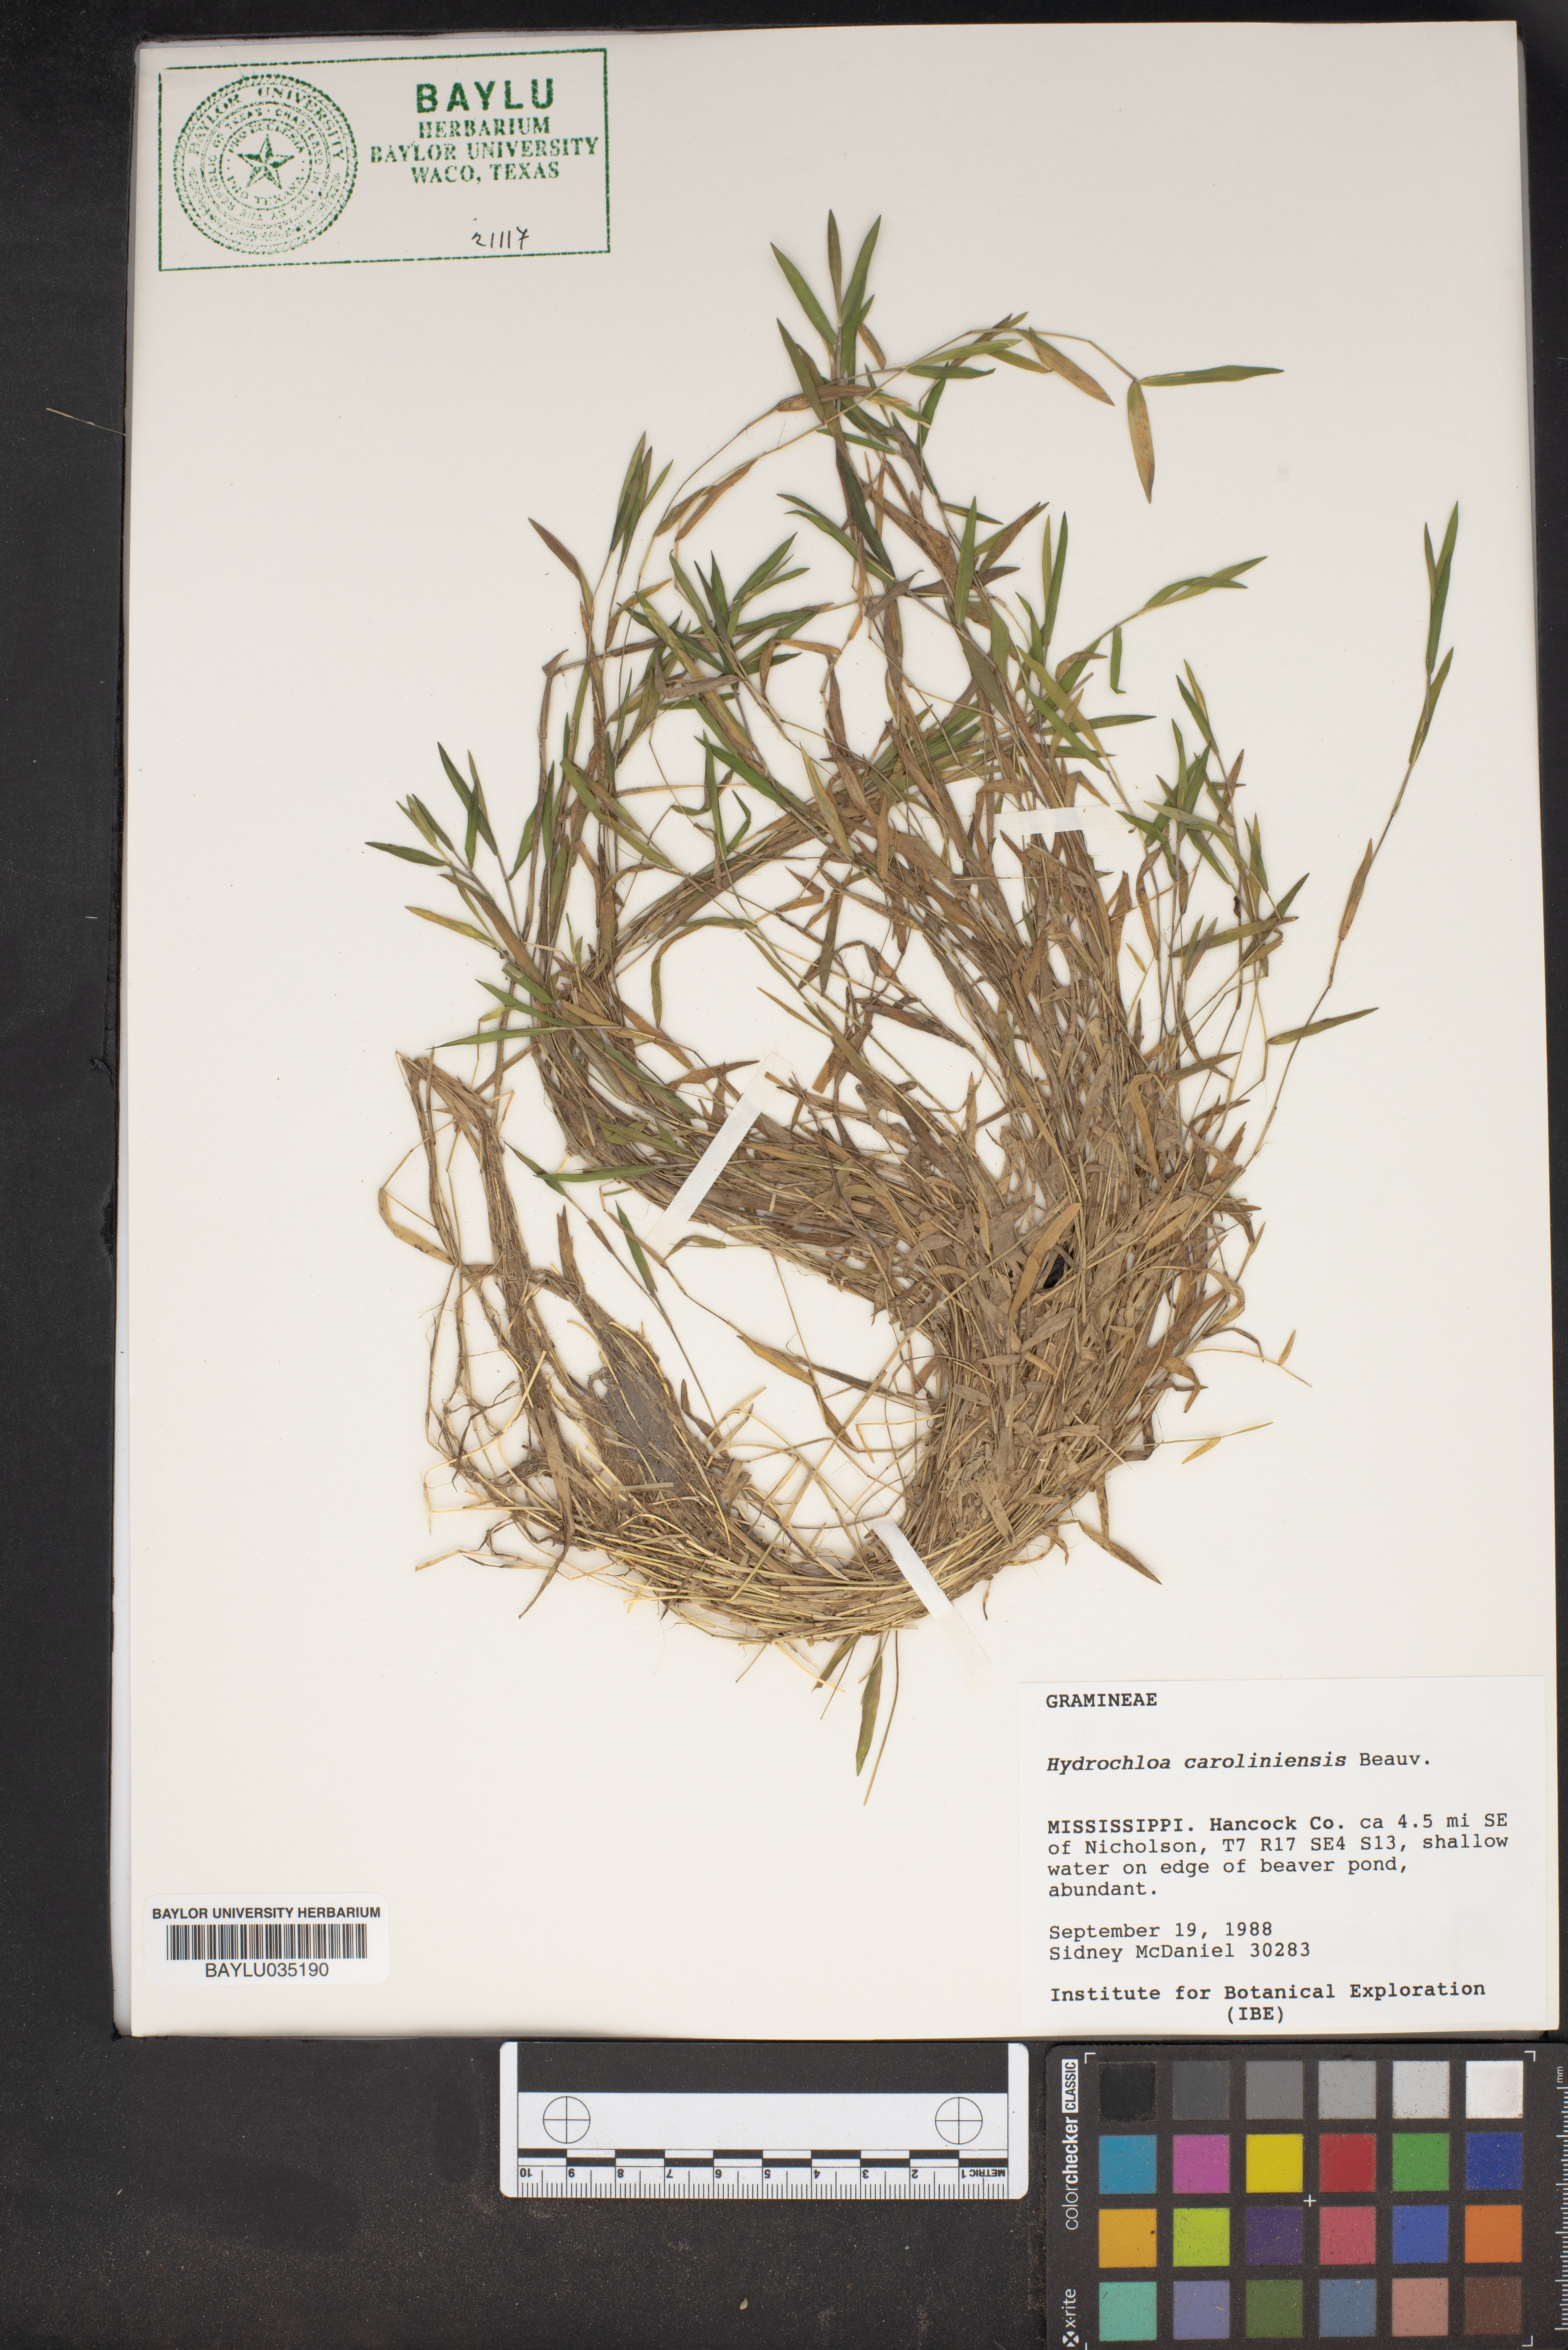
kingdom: Plantae
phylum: Tracheophyta
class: Liliopsida
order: Poales
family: Poaceae
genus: Luziola
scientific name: Luziola fluitans
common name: Silverleaf grass
